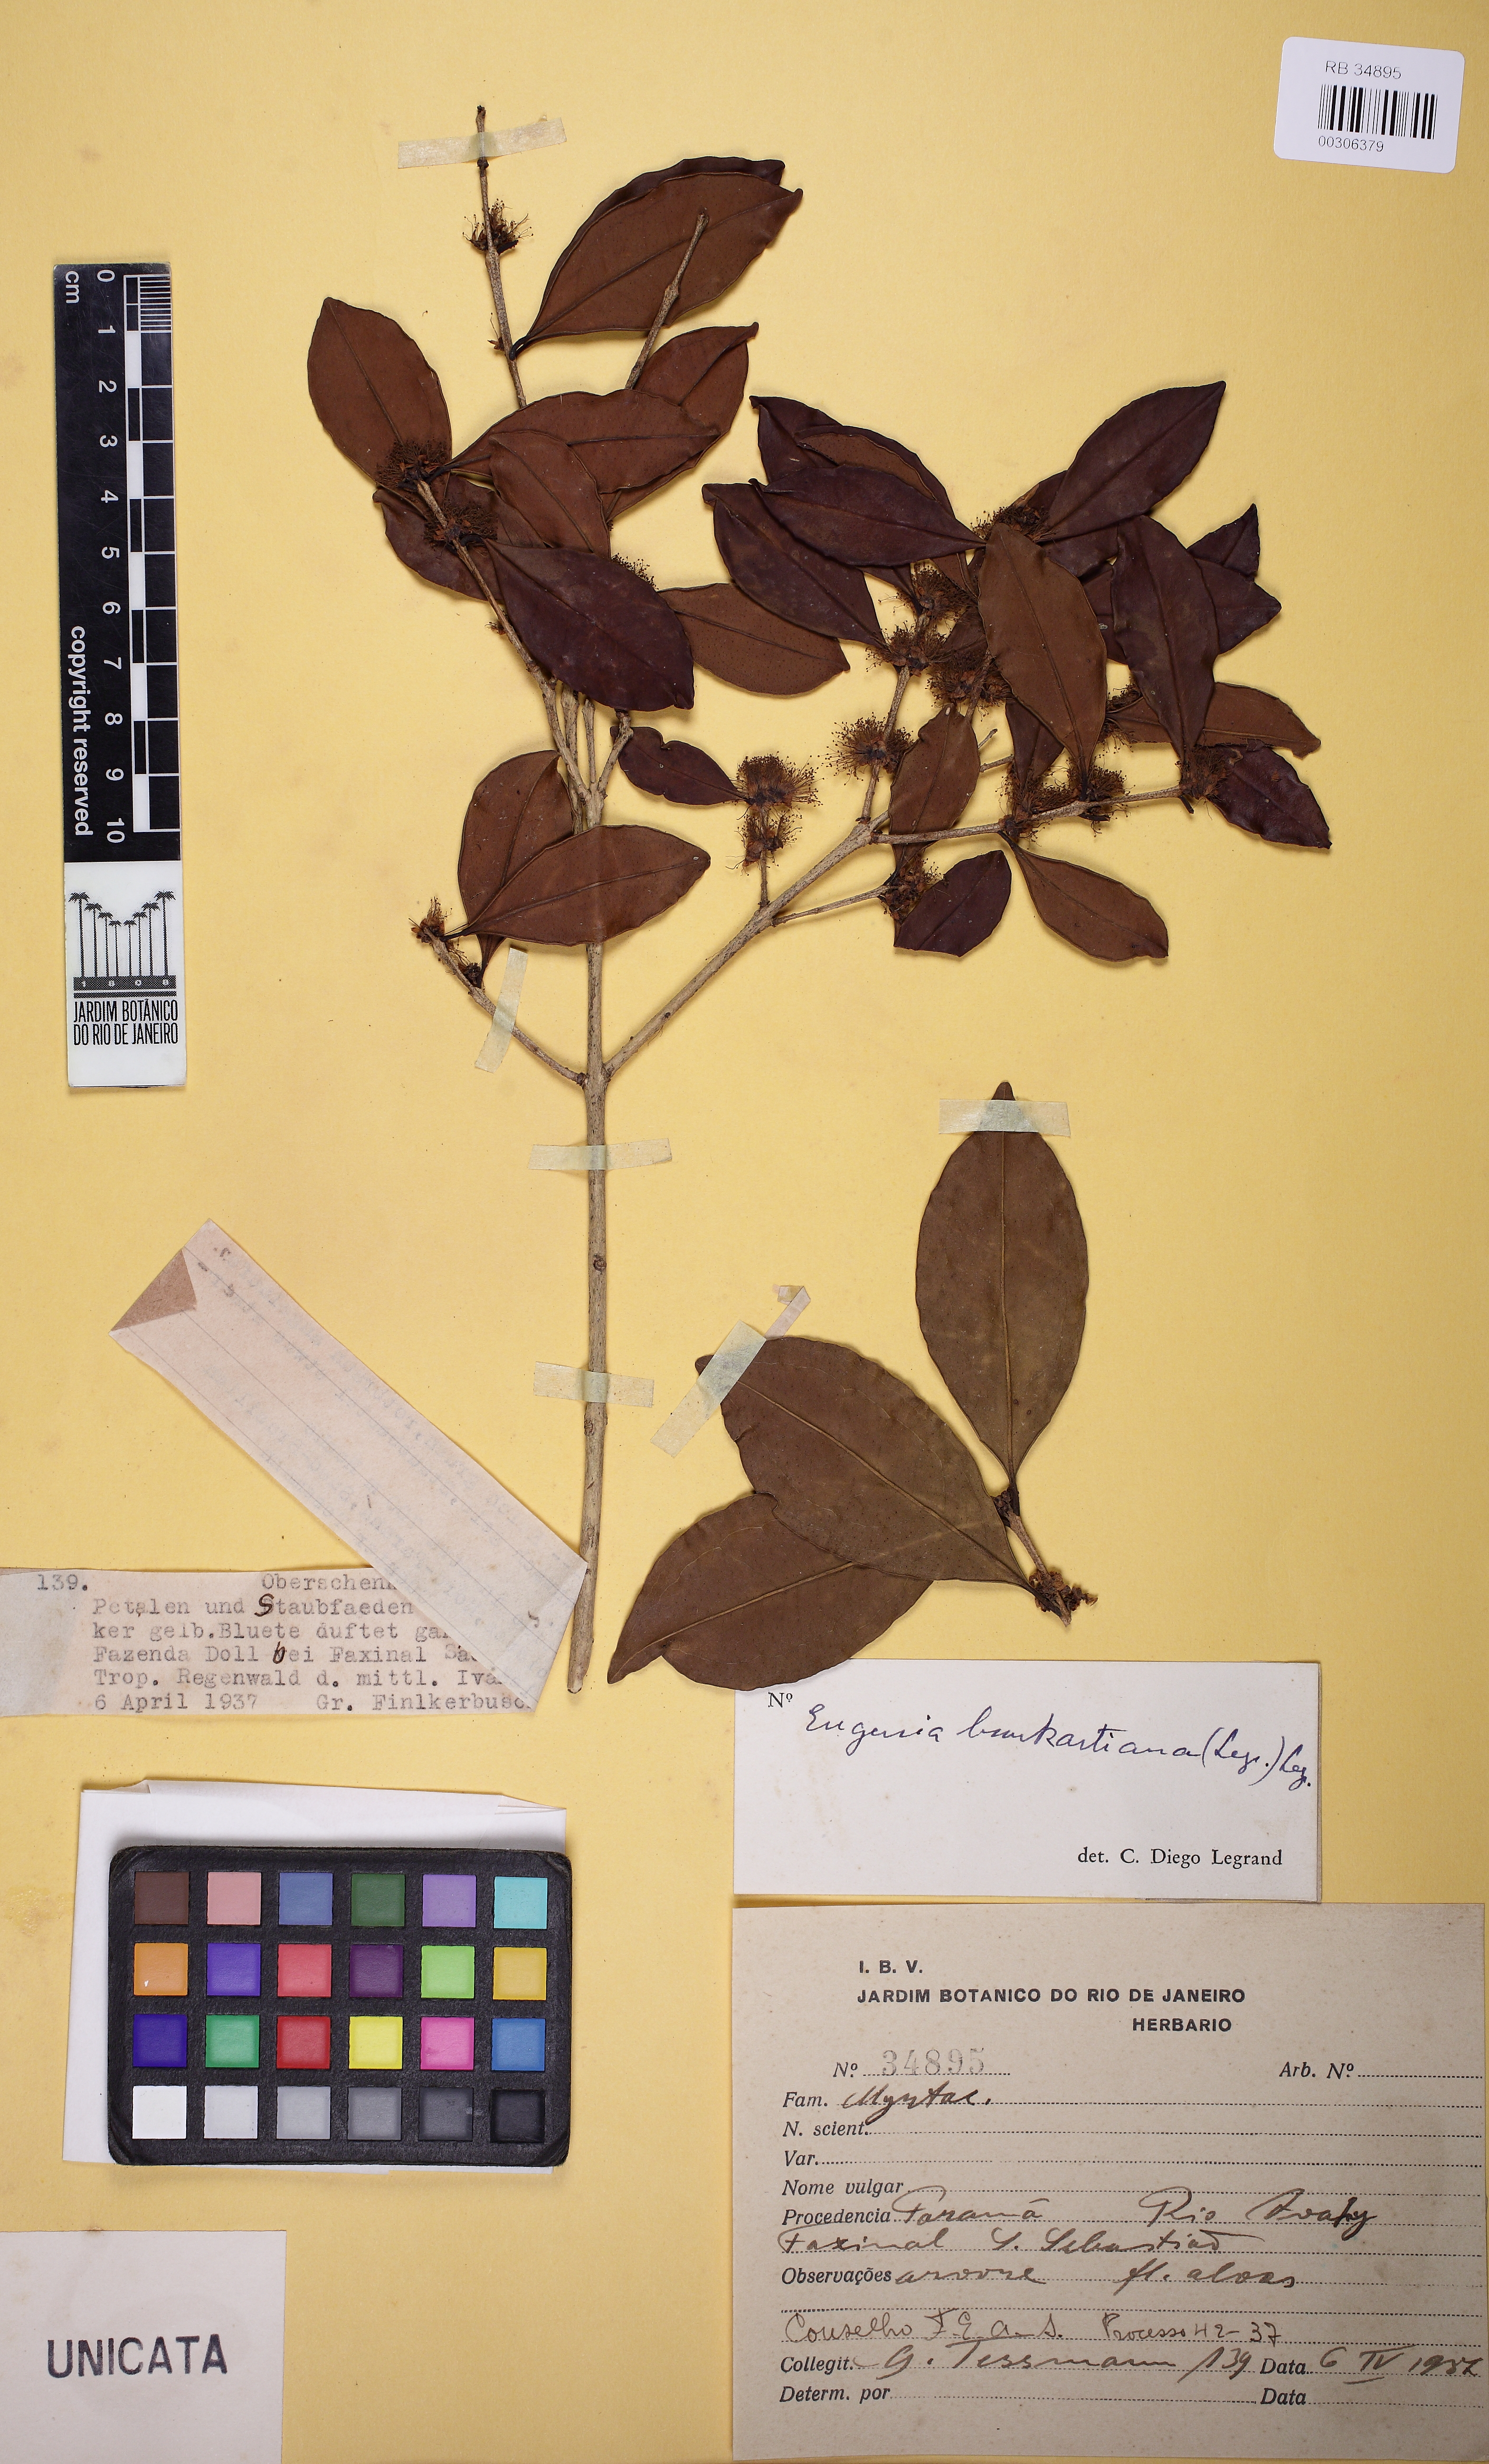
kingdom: Plantae
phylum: Tracheophyta
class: Magnoliopsida
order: Myrtales
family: Myrtaceae
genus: Eugenia
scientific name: Eugenia burkartiana
